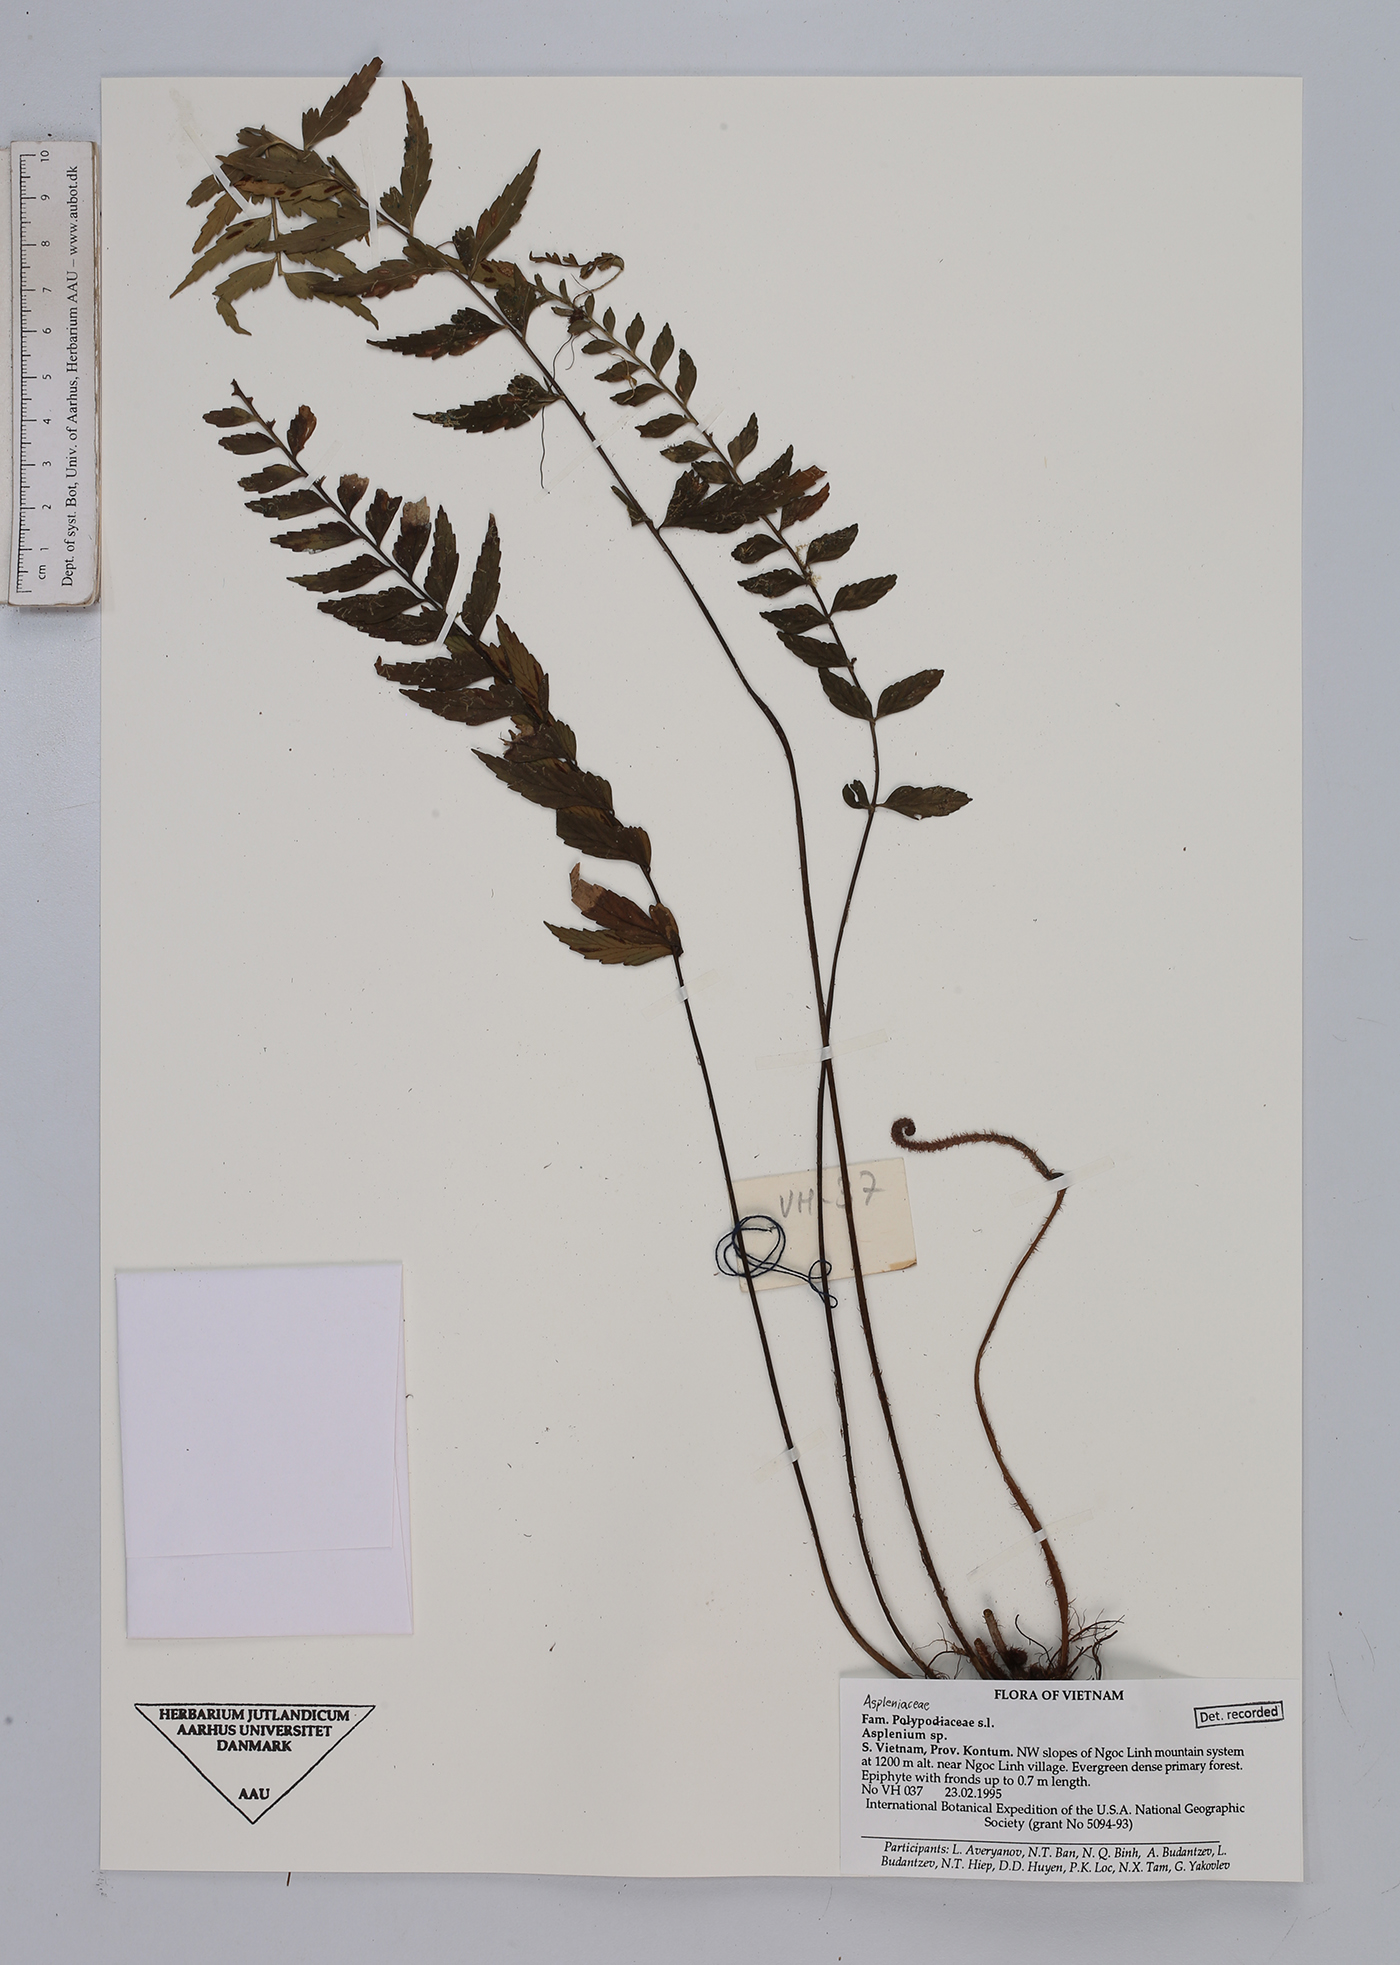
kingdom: Plantae
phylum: Tracheophyta
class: Polypodiopsida
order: Polypodiales
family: Aspleniaceae
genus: Asplenium
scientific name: Asplenium
